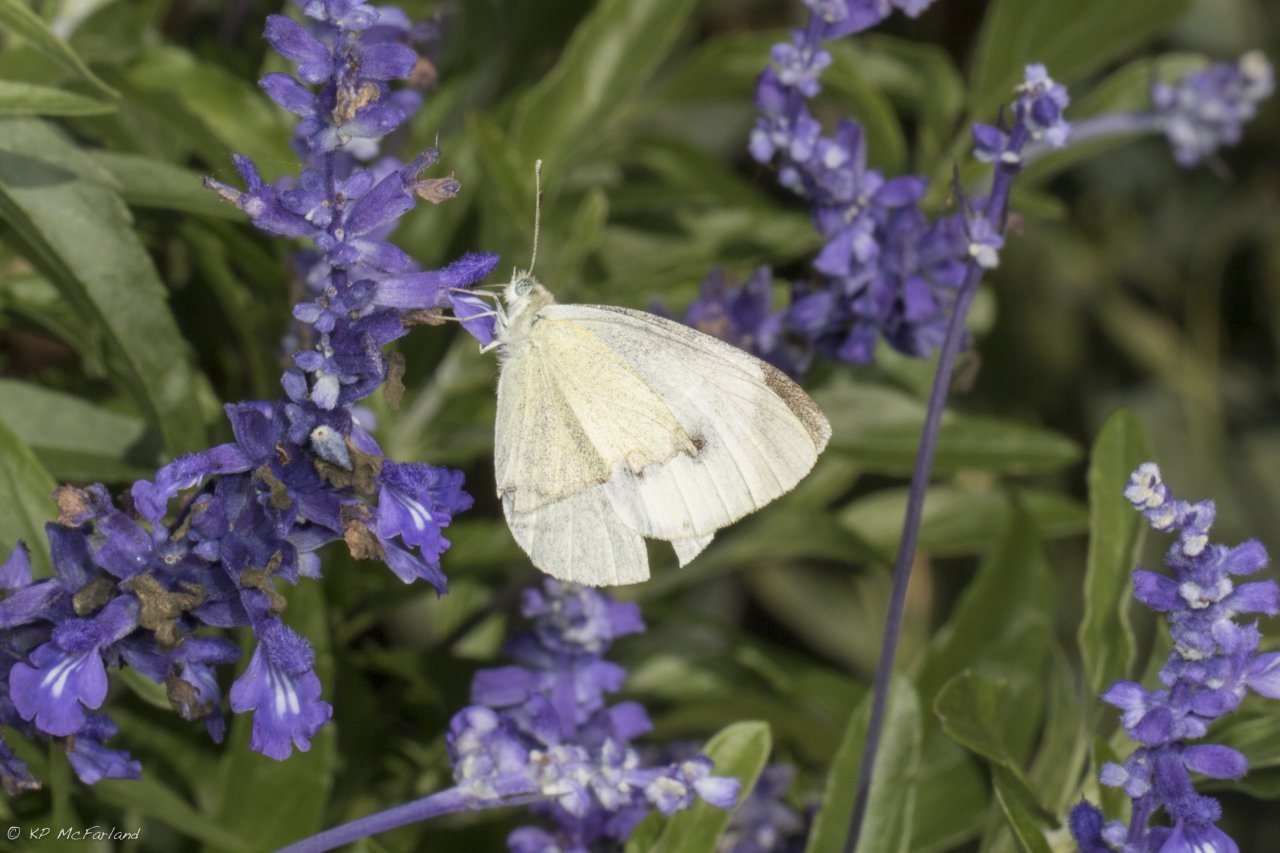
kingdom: Animalia
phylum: Arthropoda
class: Insecta
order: Lepidoptera
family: Pieridae
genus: Pieris
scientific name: Pieris rapae
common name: Cabbage White
